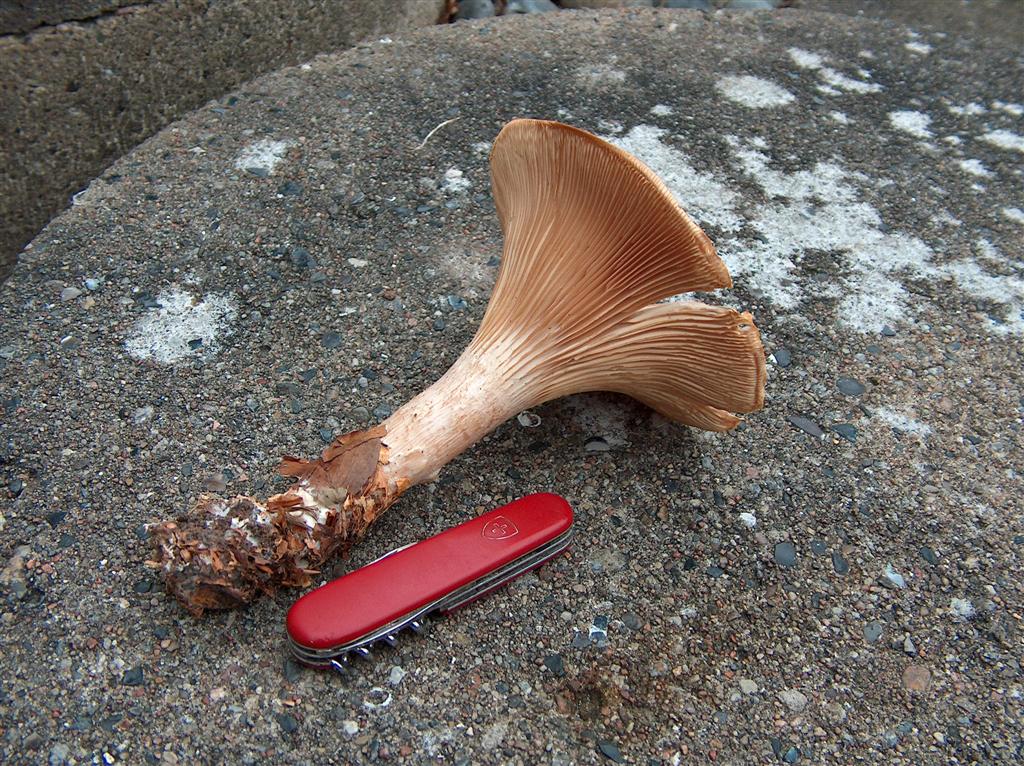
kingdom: Fungi
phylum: Basidiomycota
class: Agaricomycetes
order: Agaricales
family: Tricholomataceae
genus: Infundibulicybe
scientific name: Infundibulicybe geotropa
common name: stor tragthat
